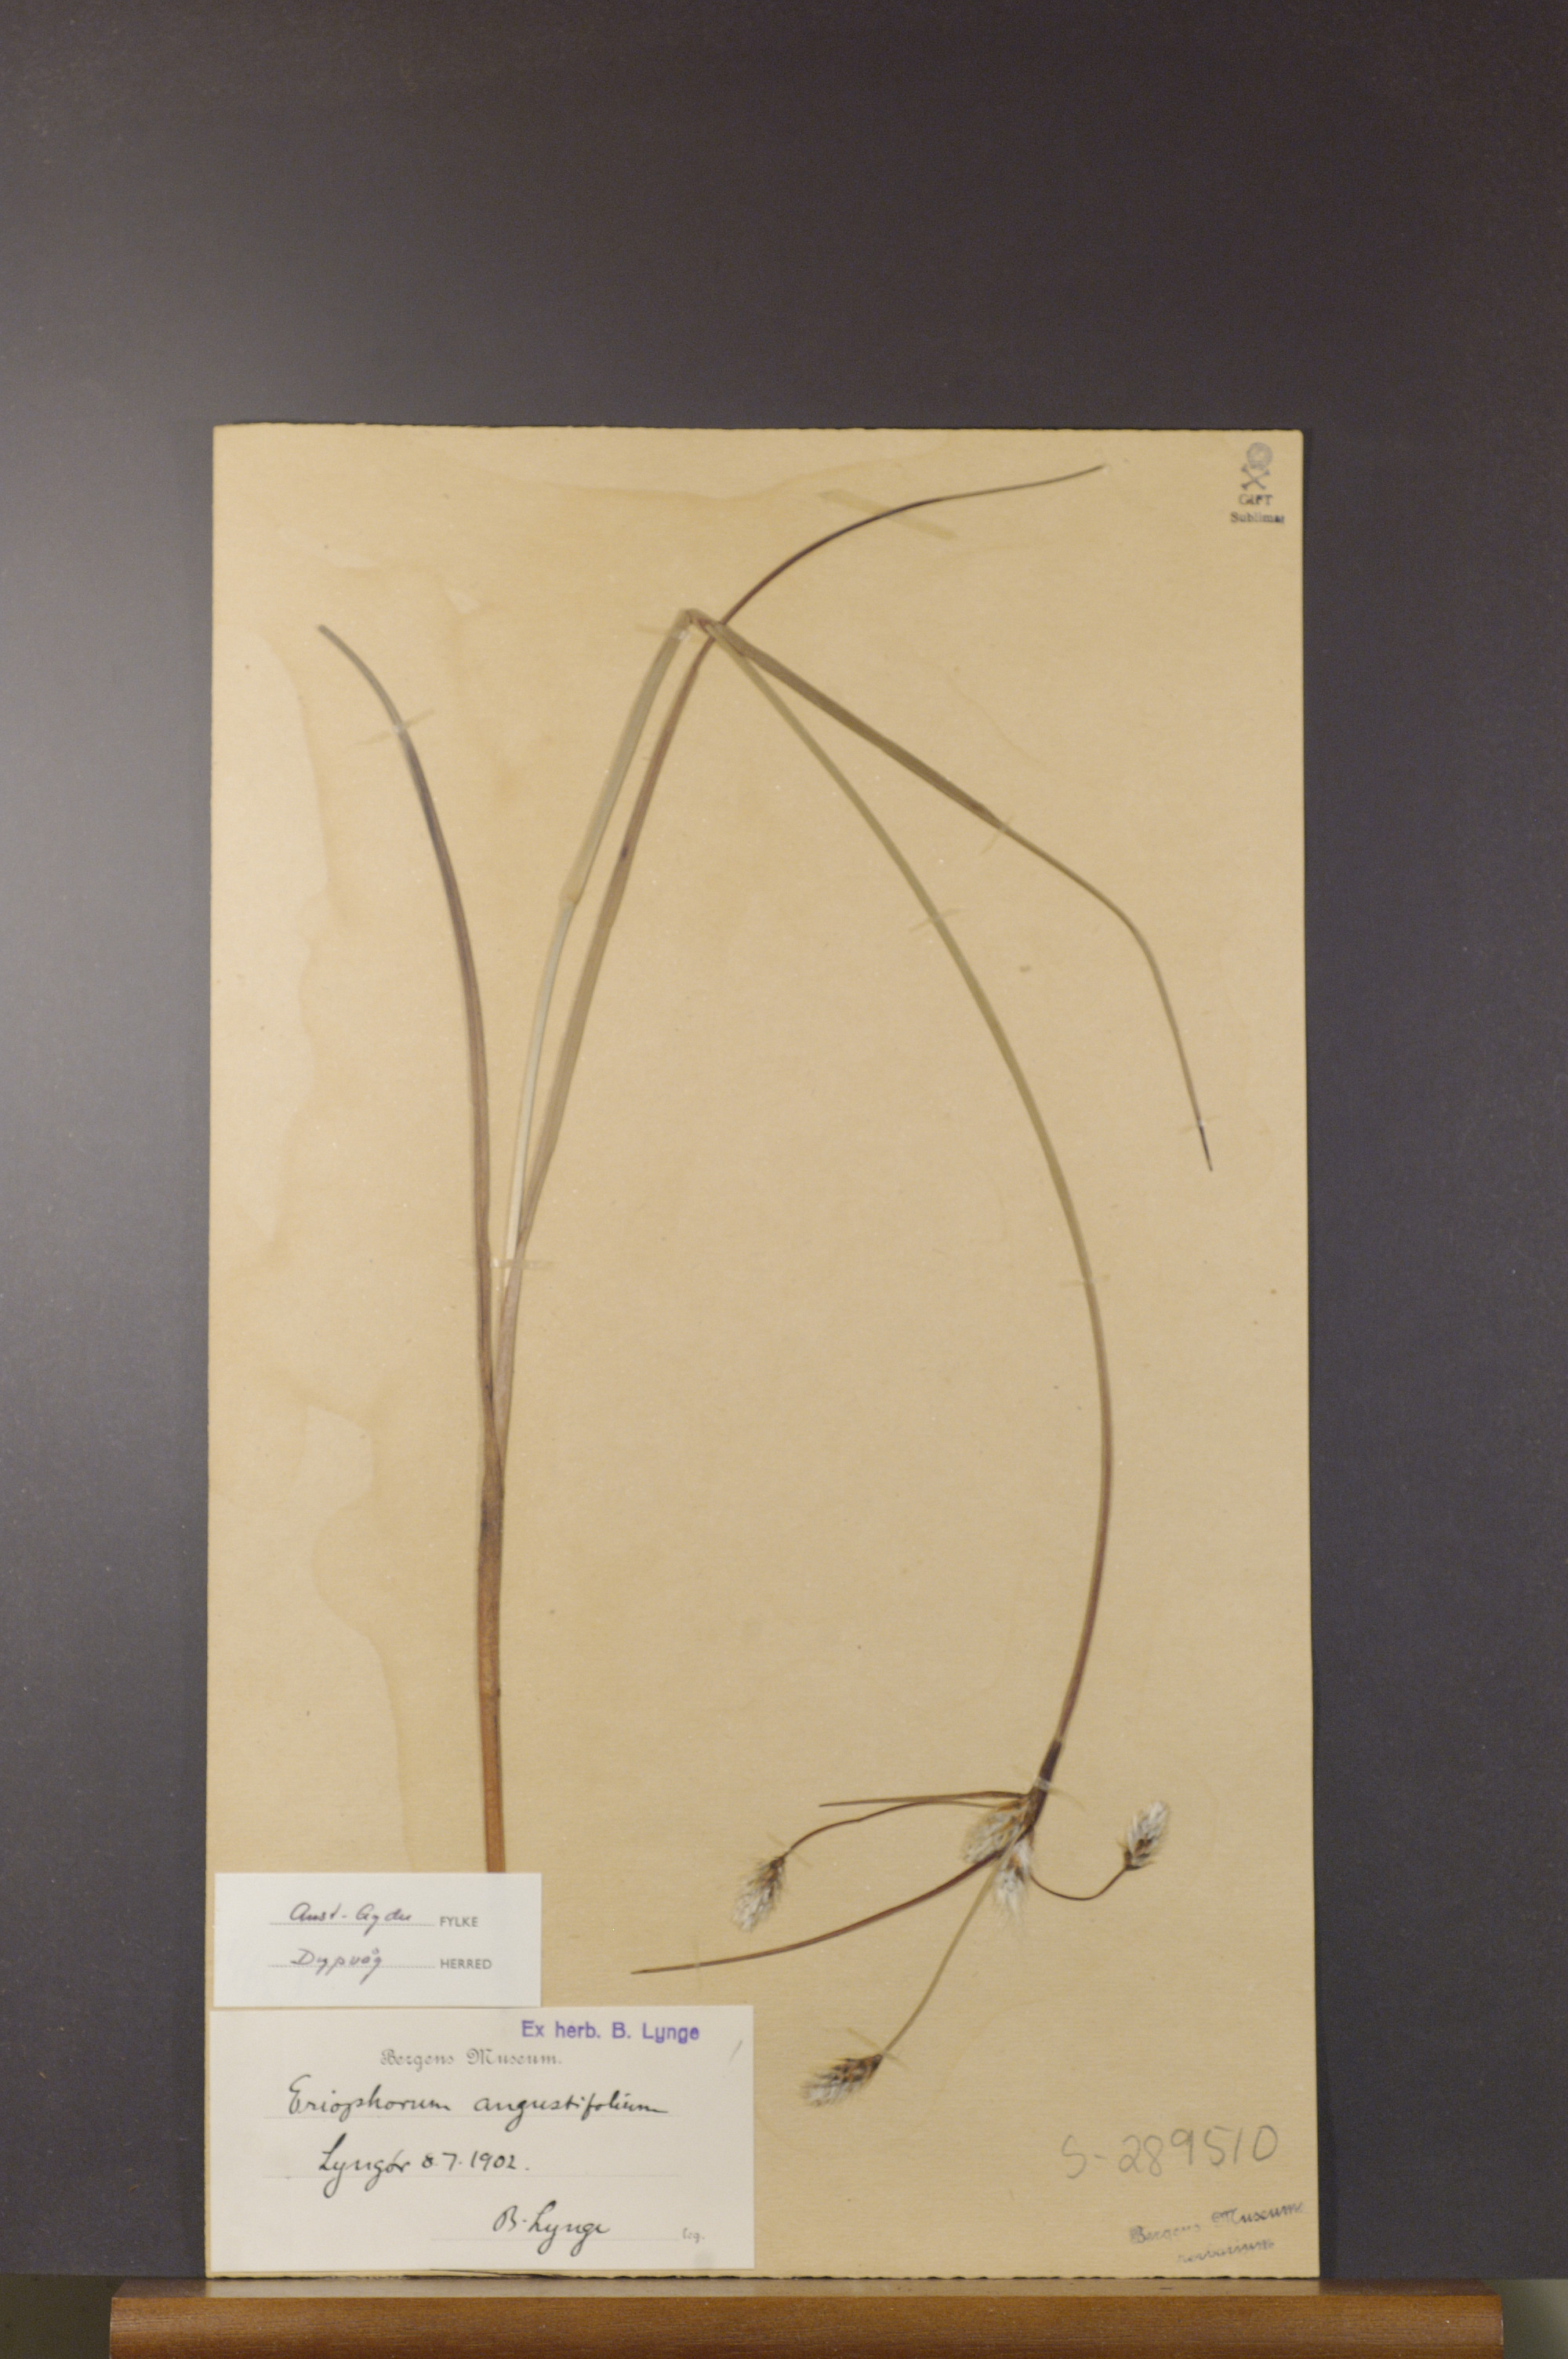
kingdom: Plantae
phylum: Tracheophyta
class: Liliopsida
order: Poales
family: Cyperaceae
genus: Eriophorum
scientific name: Eriophorum angustifolium
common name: Common cottongrass
